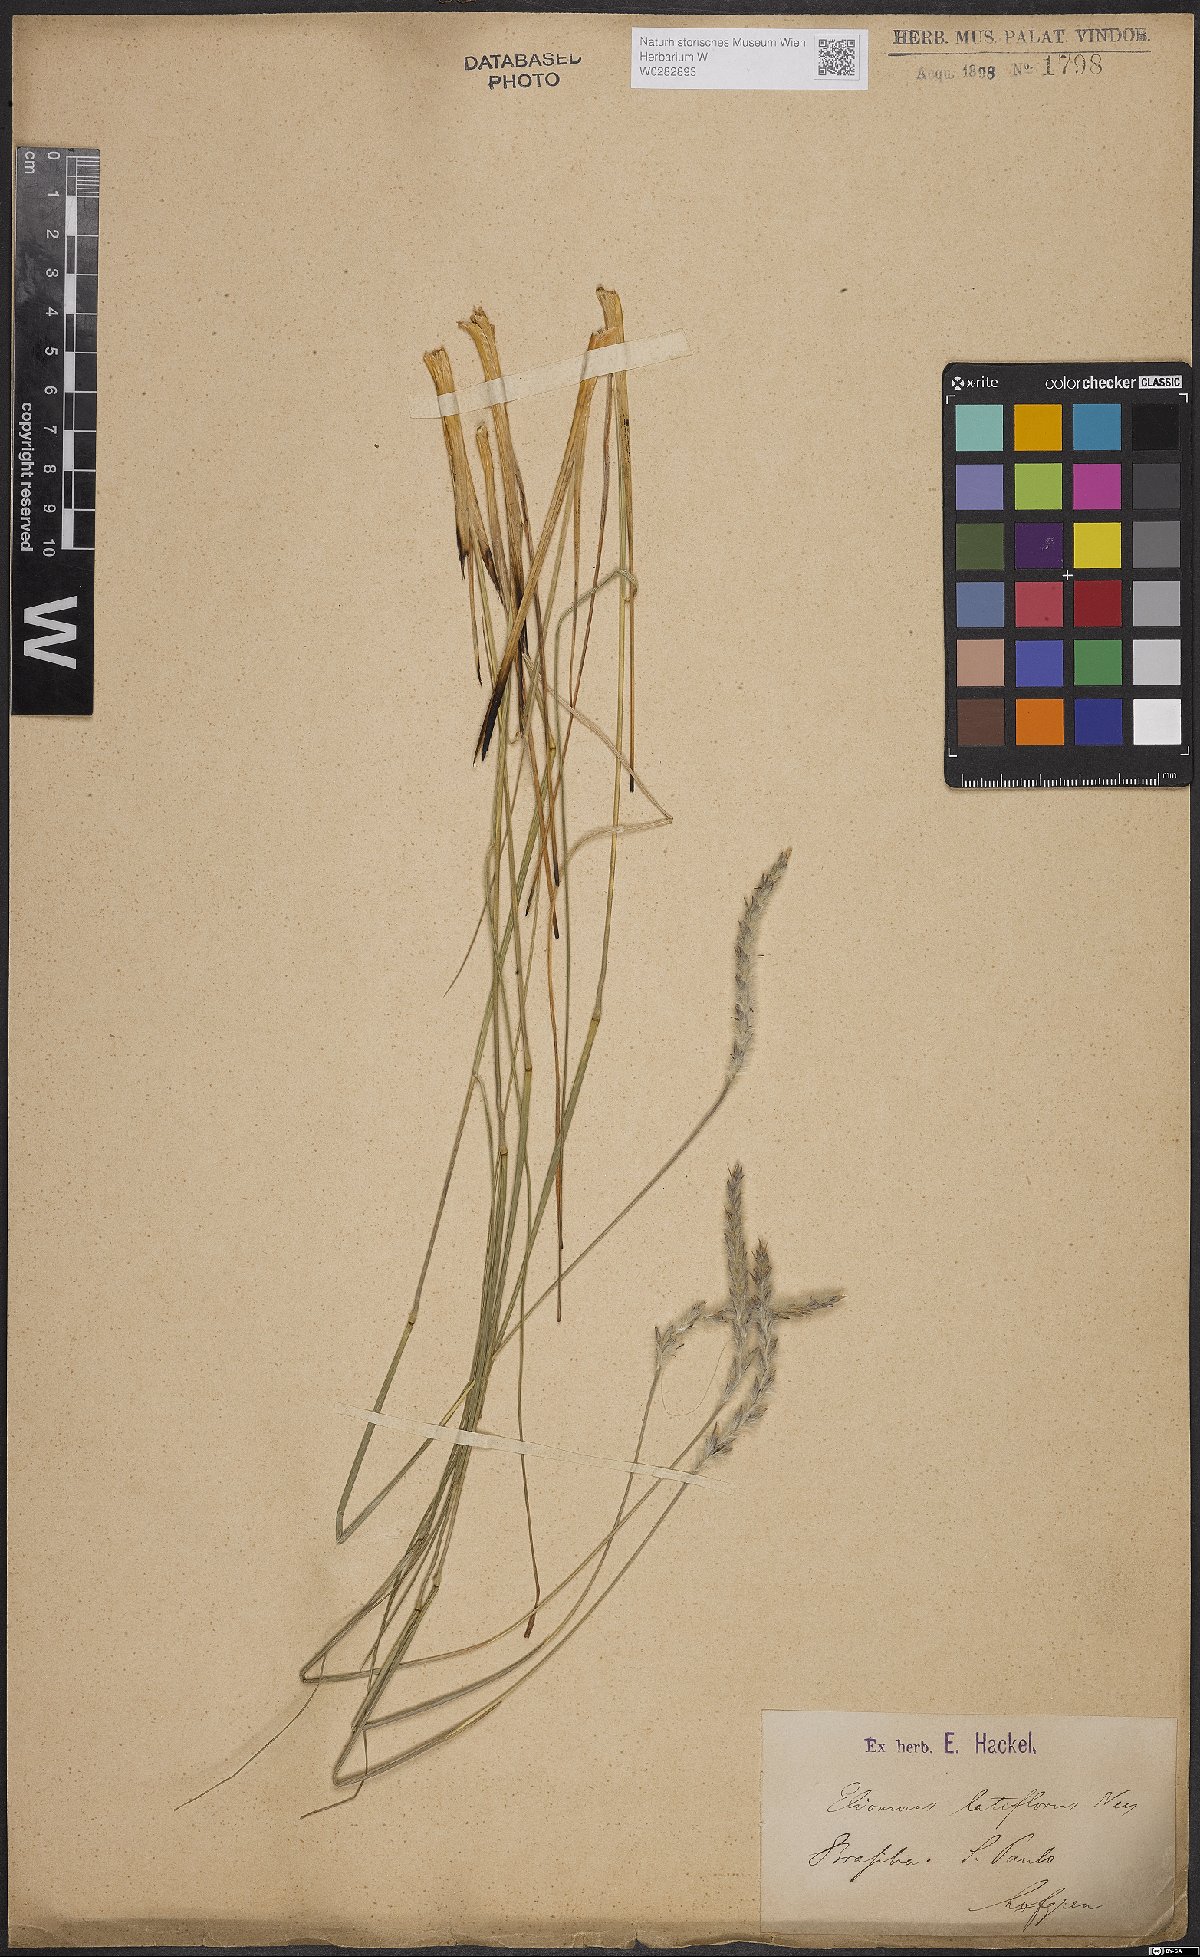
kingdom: Plantae
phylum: Tracheophyta
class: Liliopsida
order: Poales
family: Poaceae
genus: Elionurus
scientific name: Elionurus muticus
